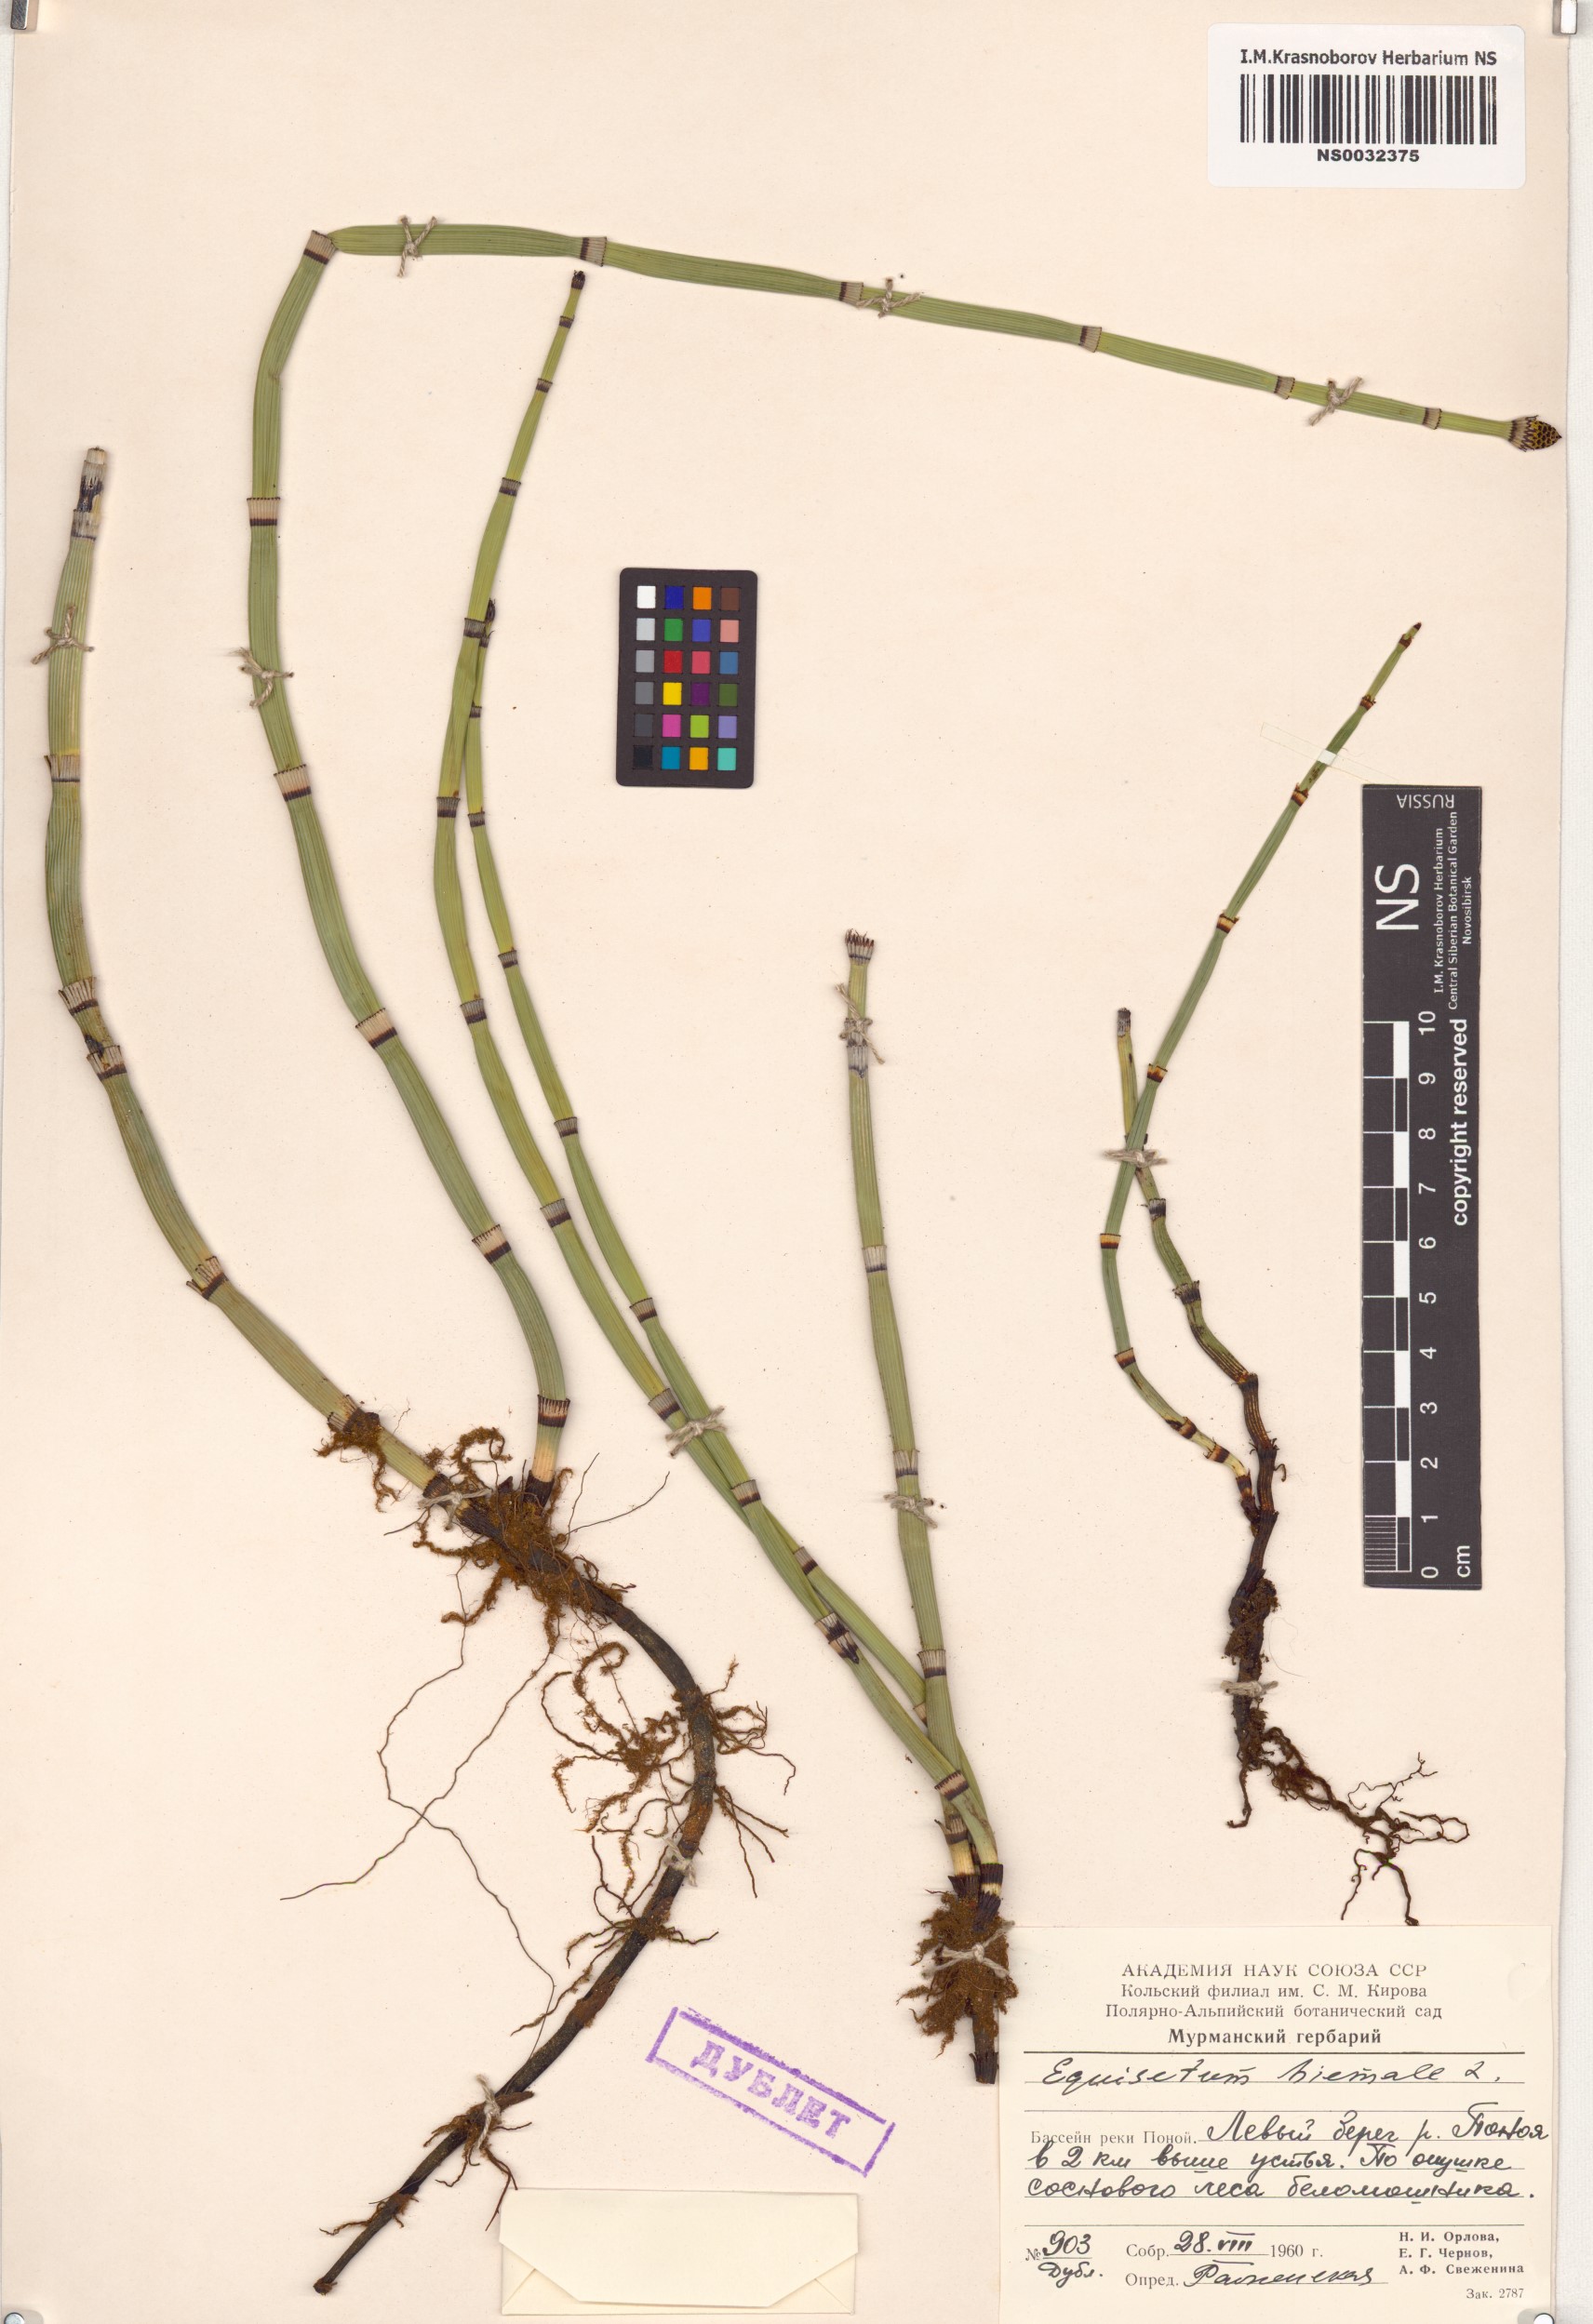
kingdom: Plantae
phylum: Tracheophyta
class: Polypodiopsida
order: Equisetales
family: Equisetaceae
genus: Equisetum
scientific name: Equisetum hyemale
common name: Rough horsetail
